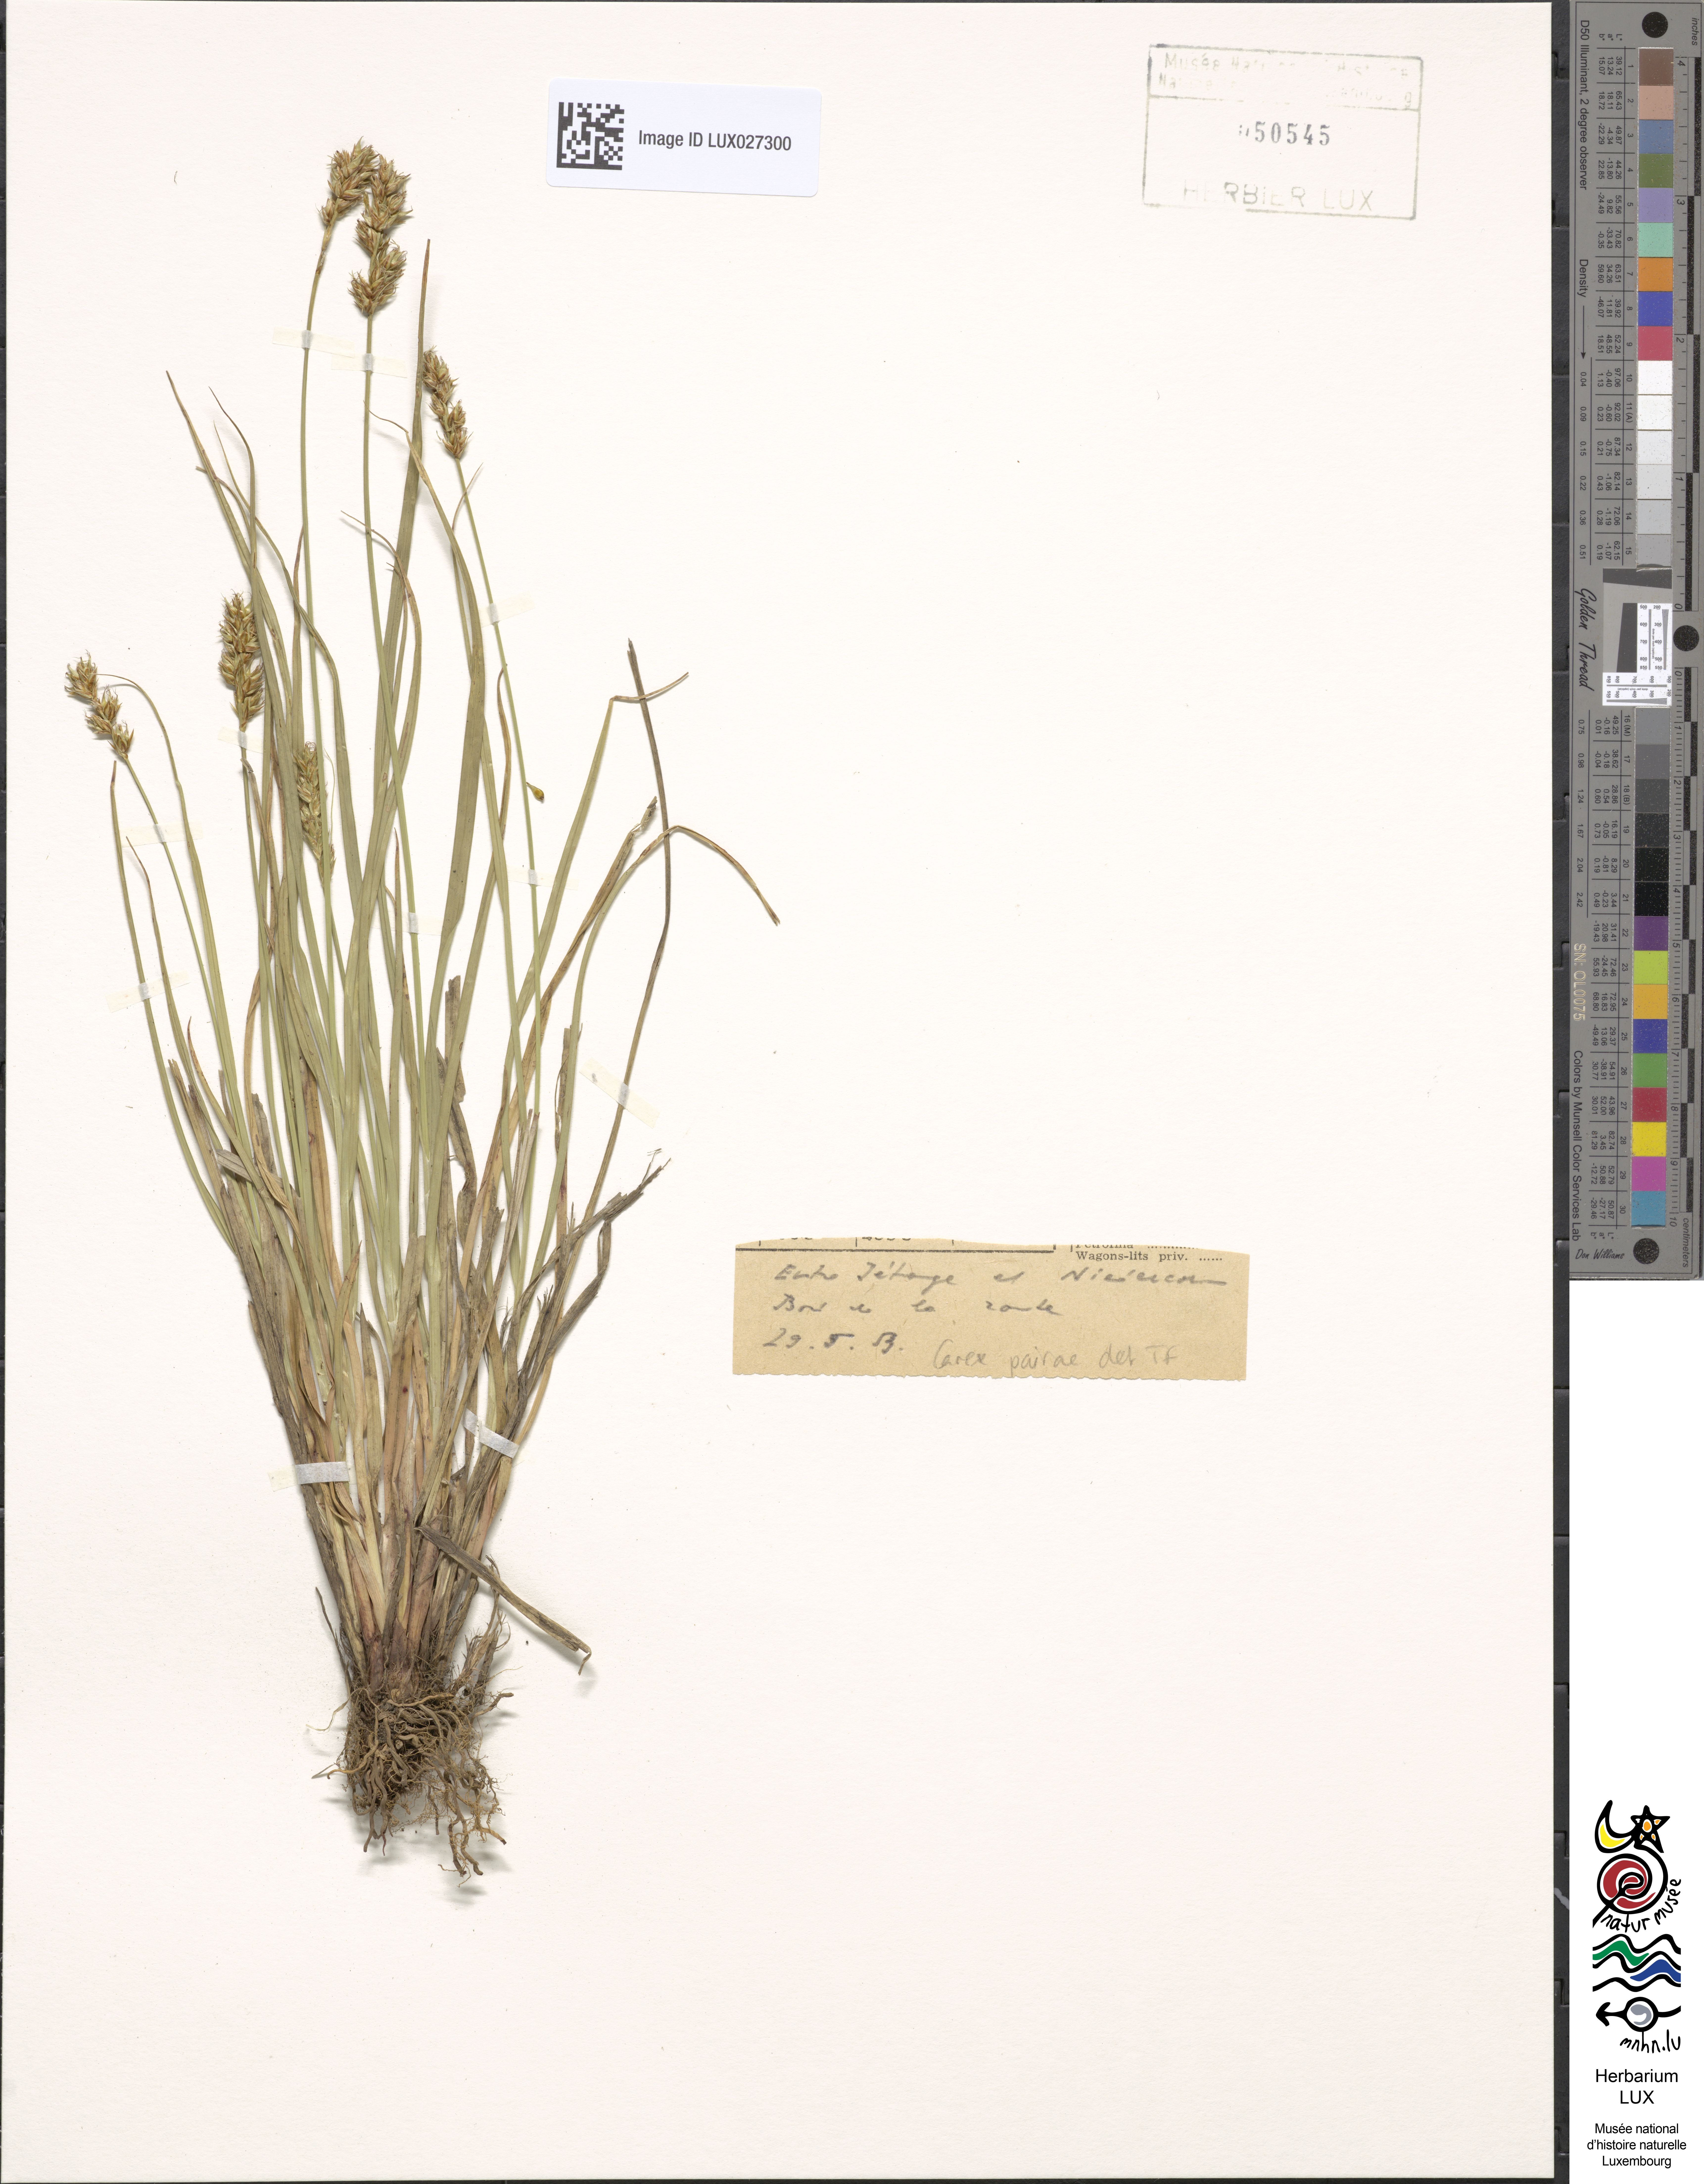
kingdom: Plantae
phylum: Tracheophyta
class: Liliopsida
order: Poales
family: Cyperaceae
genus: Carex
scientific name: Carex pairae
